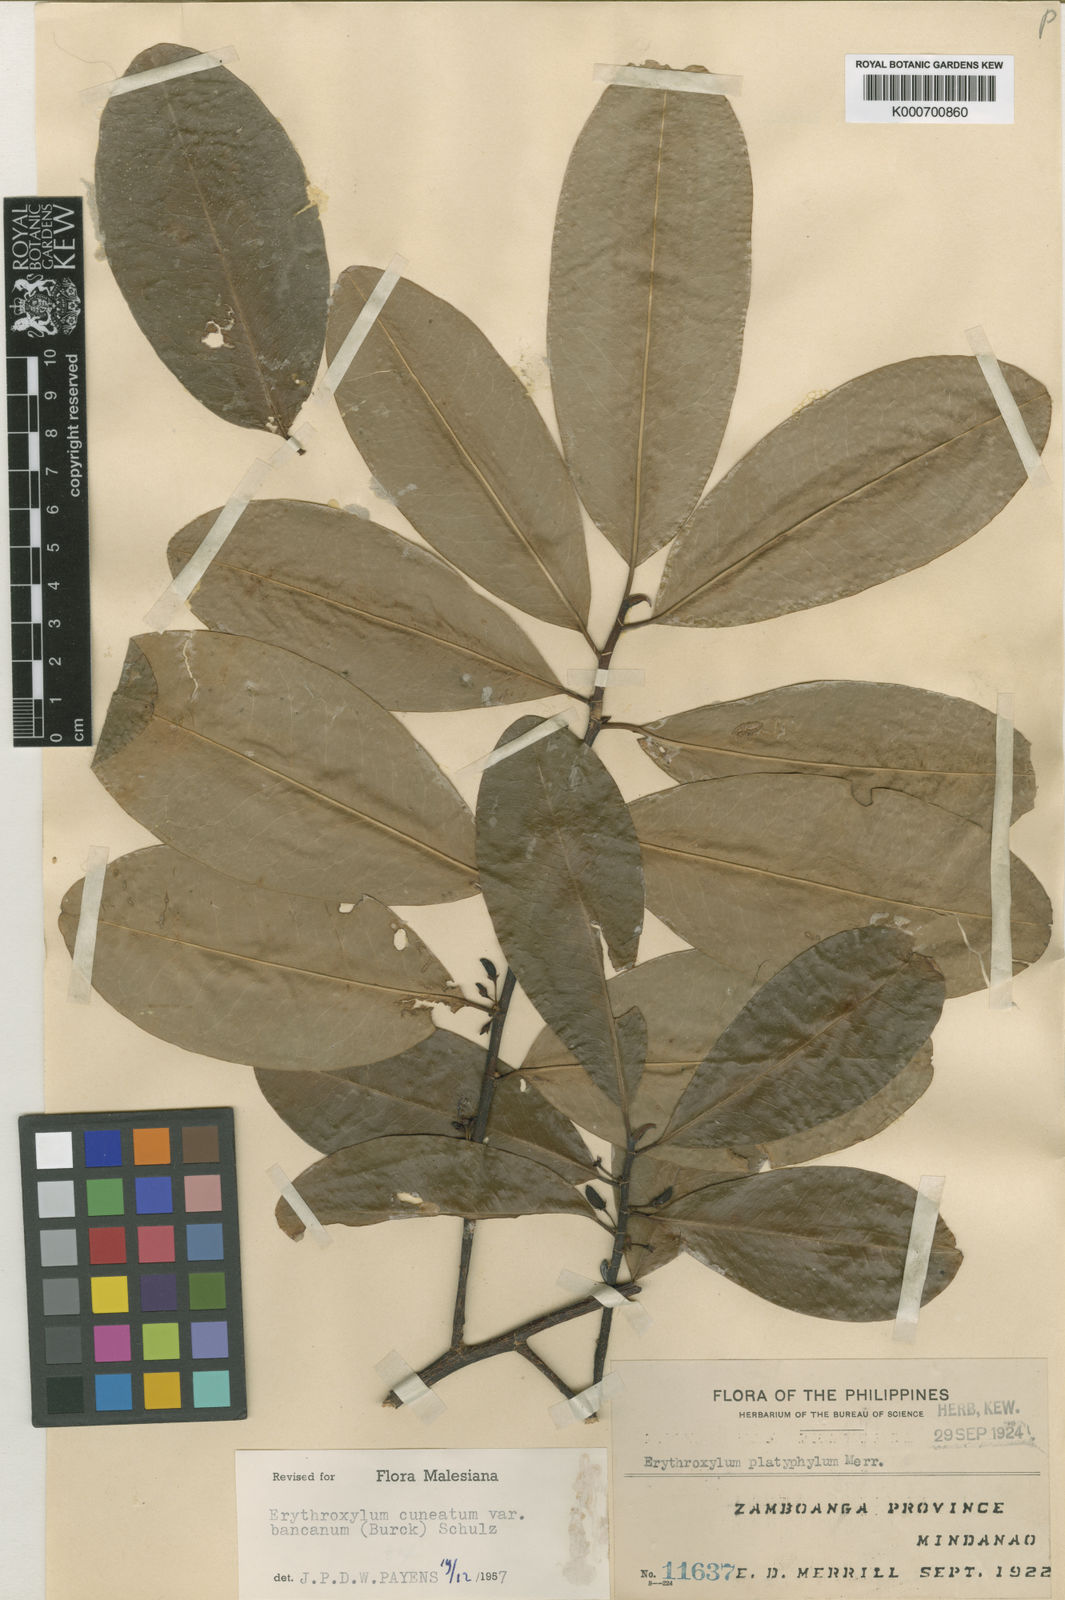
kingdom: Plantae
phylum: Tracheophyta
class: Magnoliopsida
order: Malpighiales
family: Erythroxylaceae
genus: Erythroxylum
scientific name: Erythroxylum cuneatum
